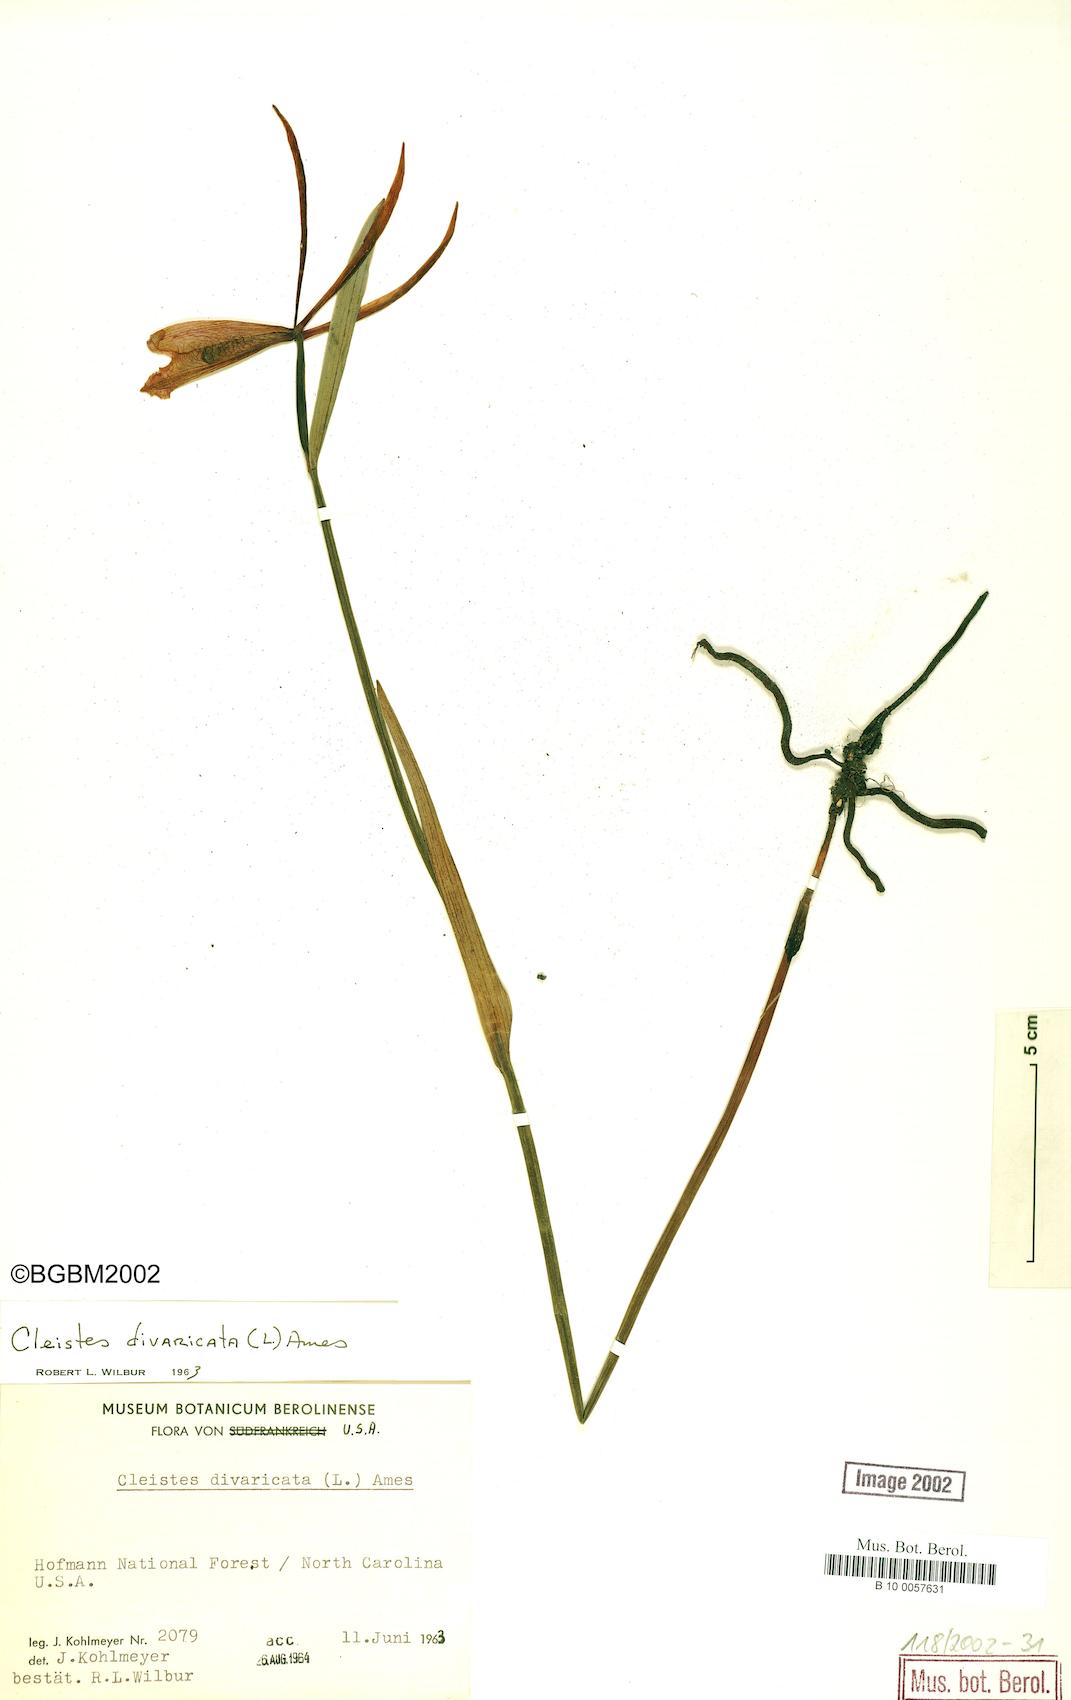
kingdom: Plantae
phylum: Tracheophyta
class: Liliopsida
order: Asparagales
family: Orchidaceae
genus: Cleistesiopsis
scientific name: Cleistesiopsis divaricata
